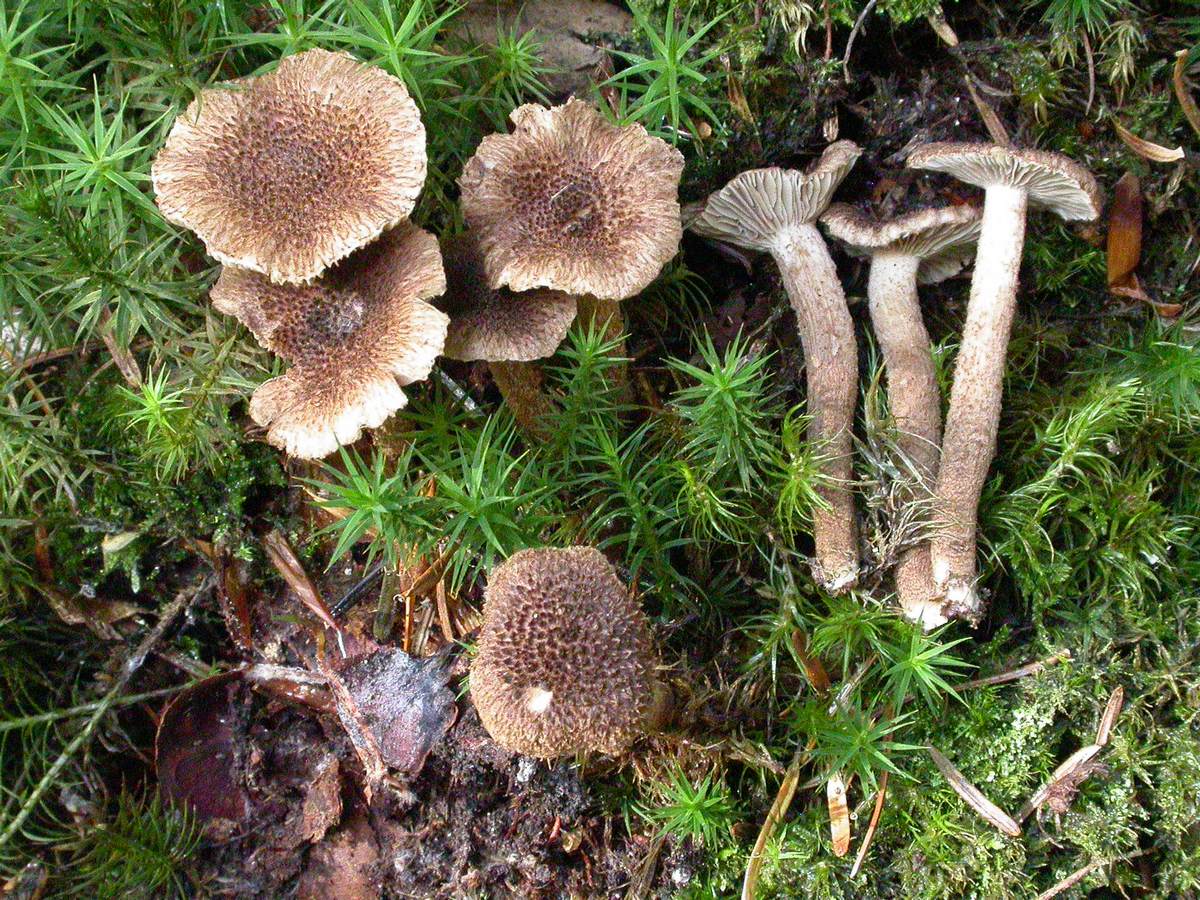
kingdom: Fungi
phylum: Basidiomycota
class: Agaricomycetes
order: Agaricales
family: Inocybaceae
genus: Inocybe
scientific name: Inocybe stellatospora
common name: spidsskællet trævlhat
